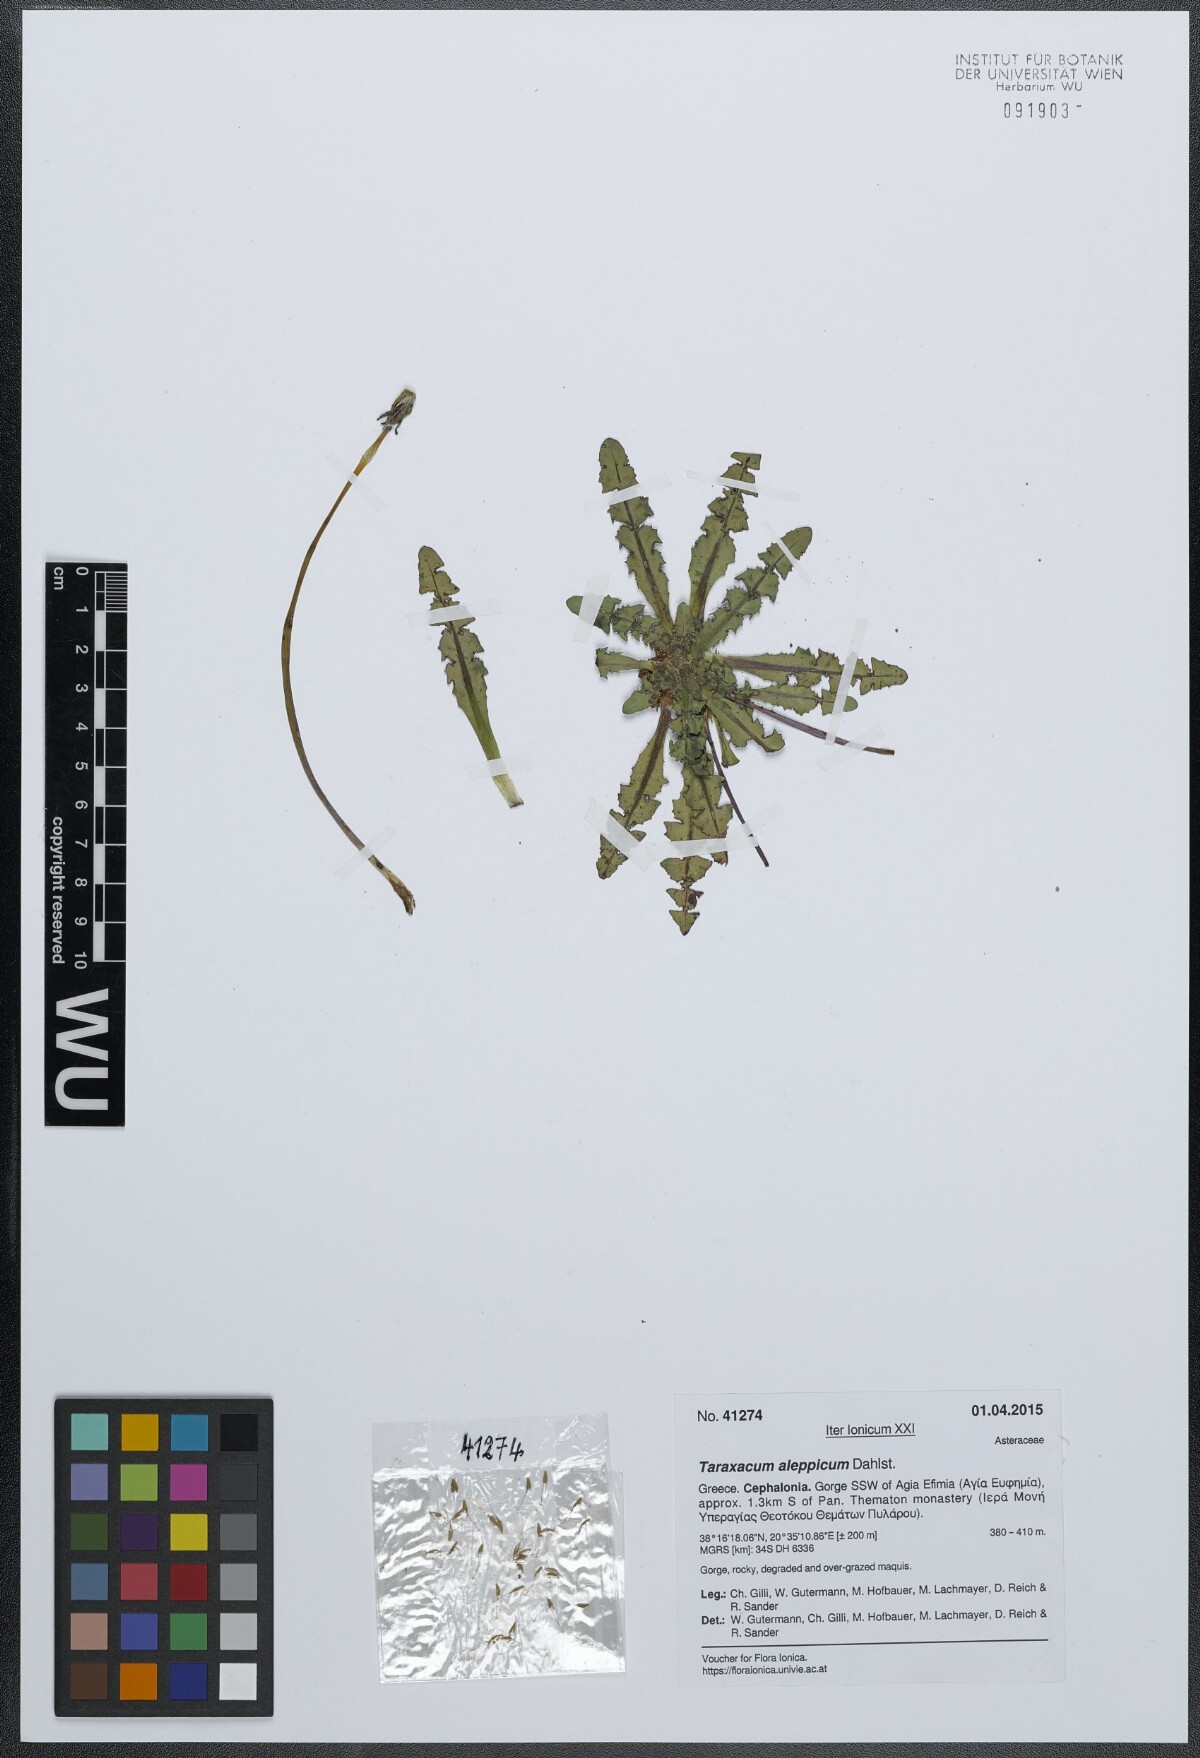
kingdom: Plantae
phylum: Tracheophyta
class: Magnoliopsida
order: Asterales
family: Asteraceae
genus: Taraxacum
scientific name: Taraxacum aleppicum
